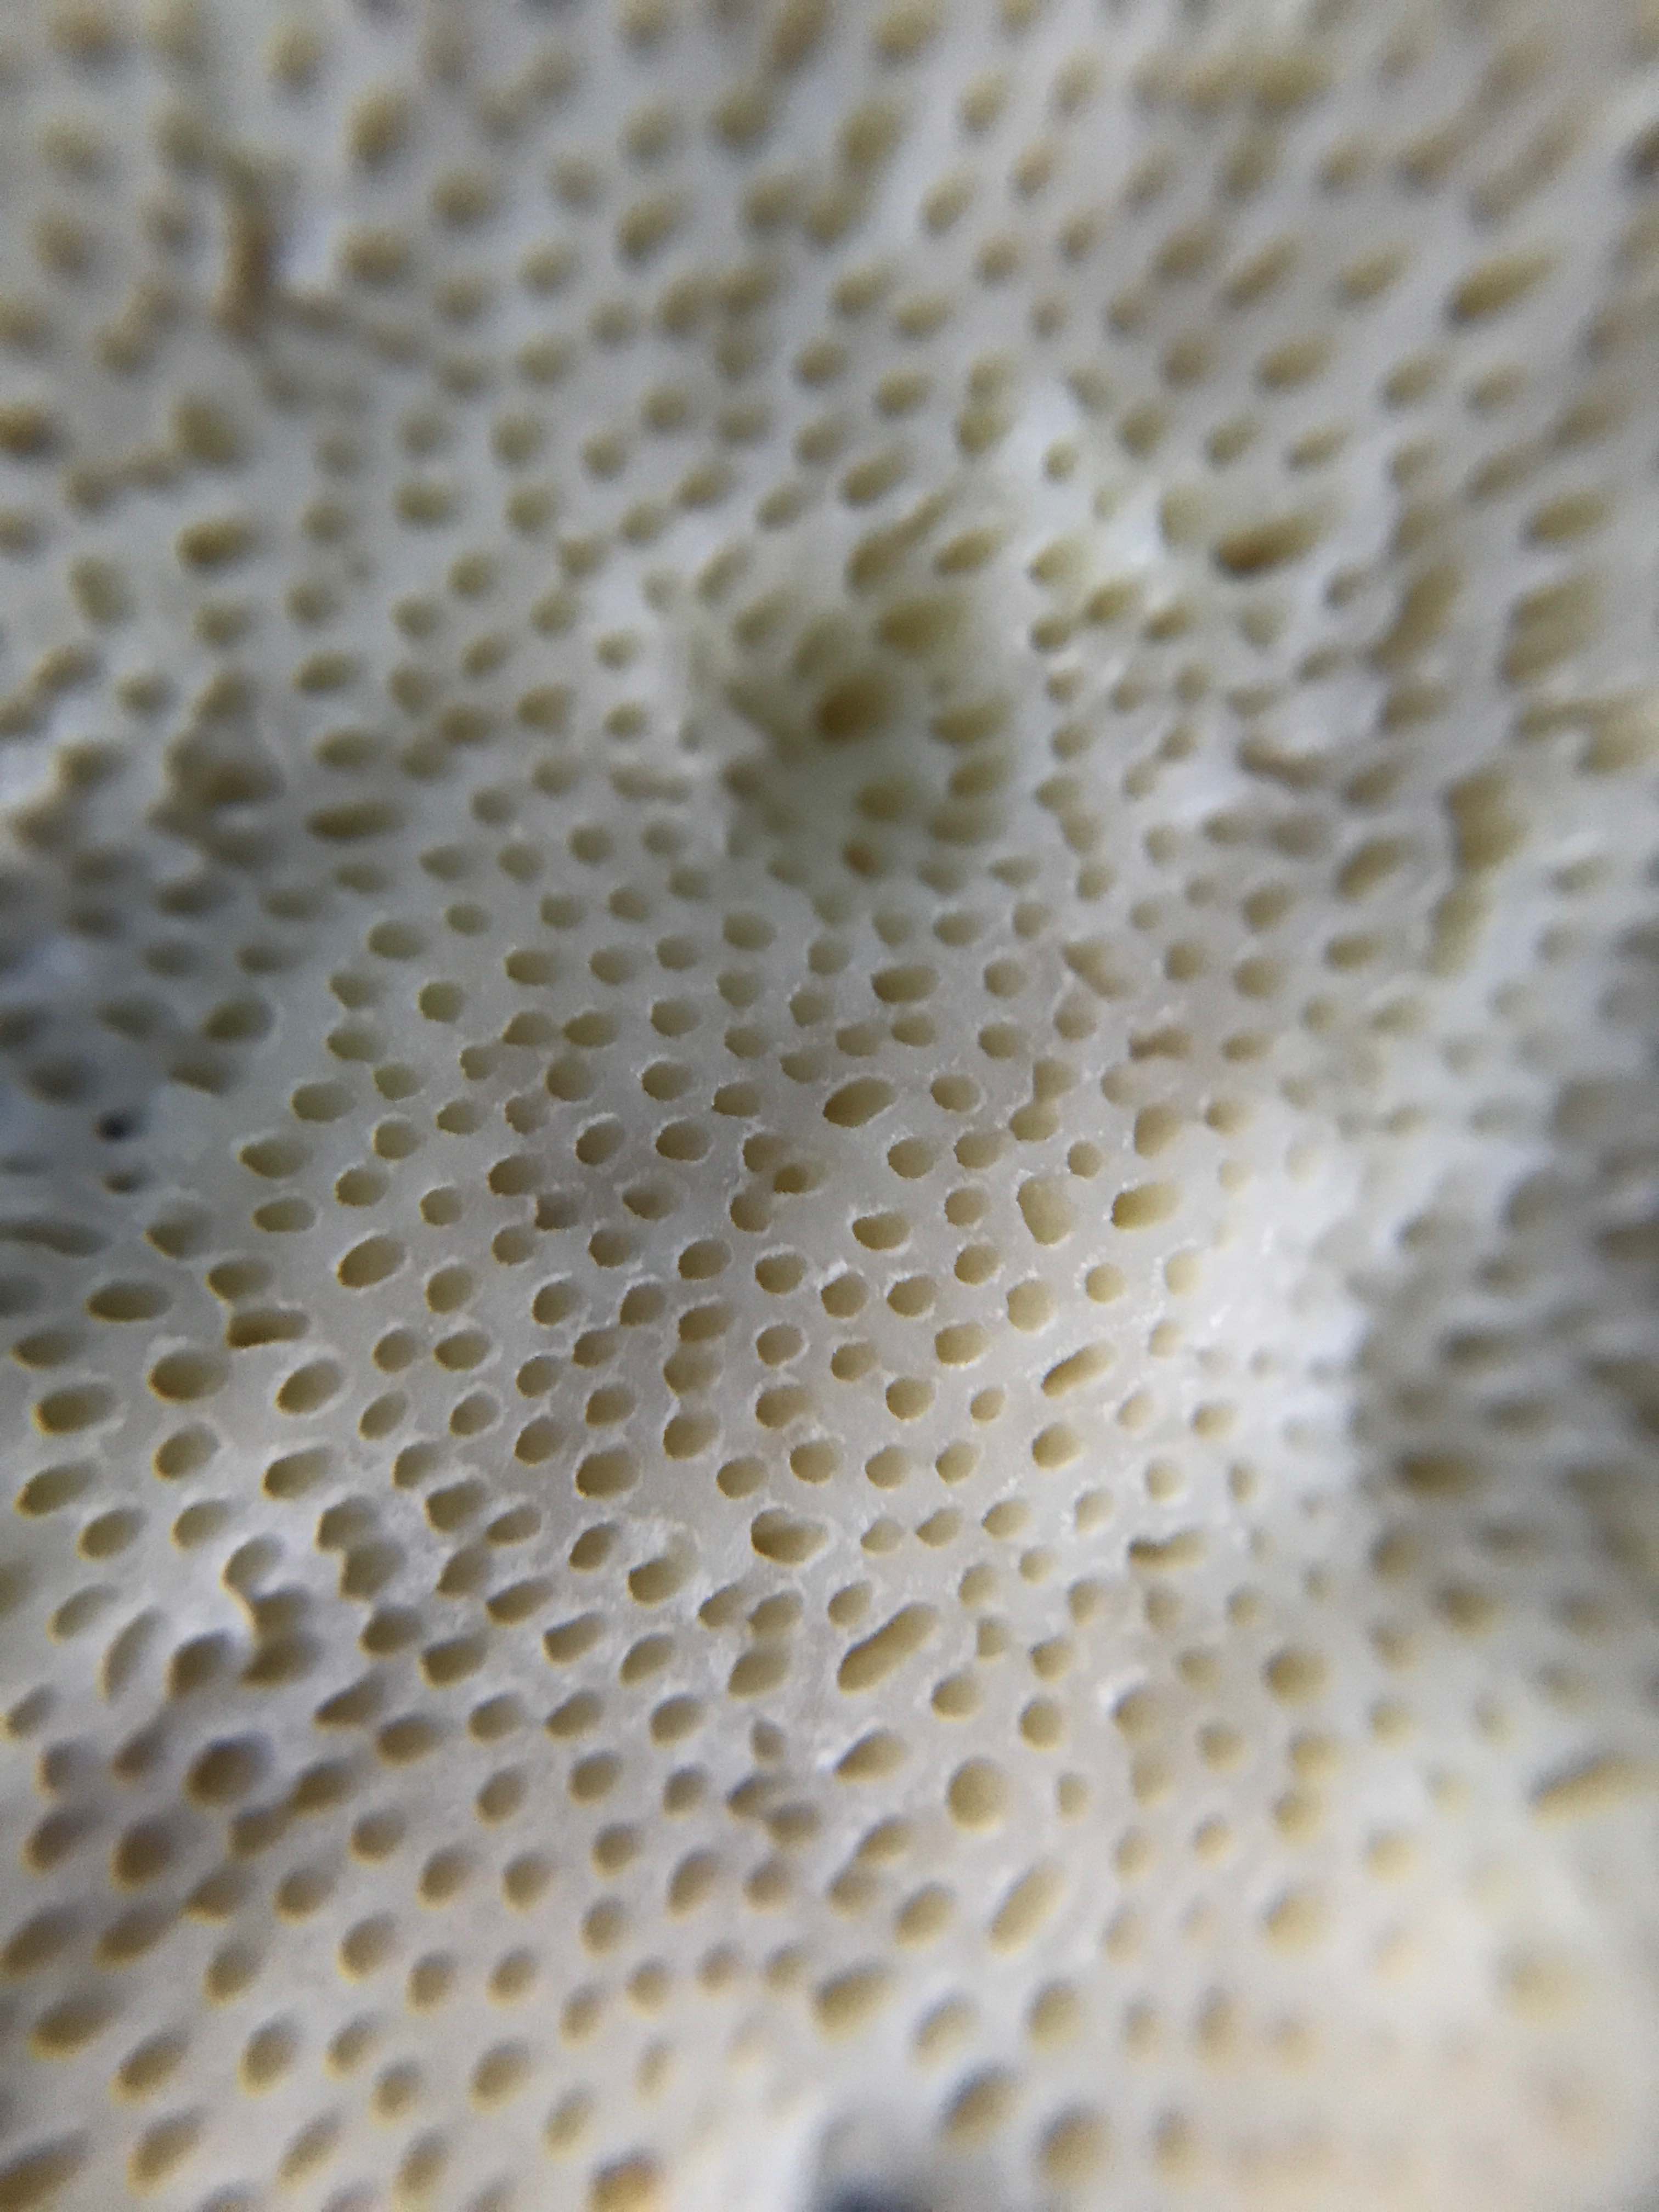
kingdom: Fungi
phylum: Basidiomycota
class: Agaricomycetes
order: Polyporales
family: Fomitopsidaceae
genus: Fomitopsis
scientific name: Fomitopsis pinicola
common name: randbæltet hovporesvamp
